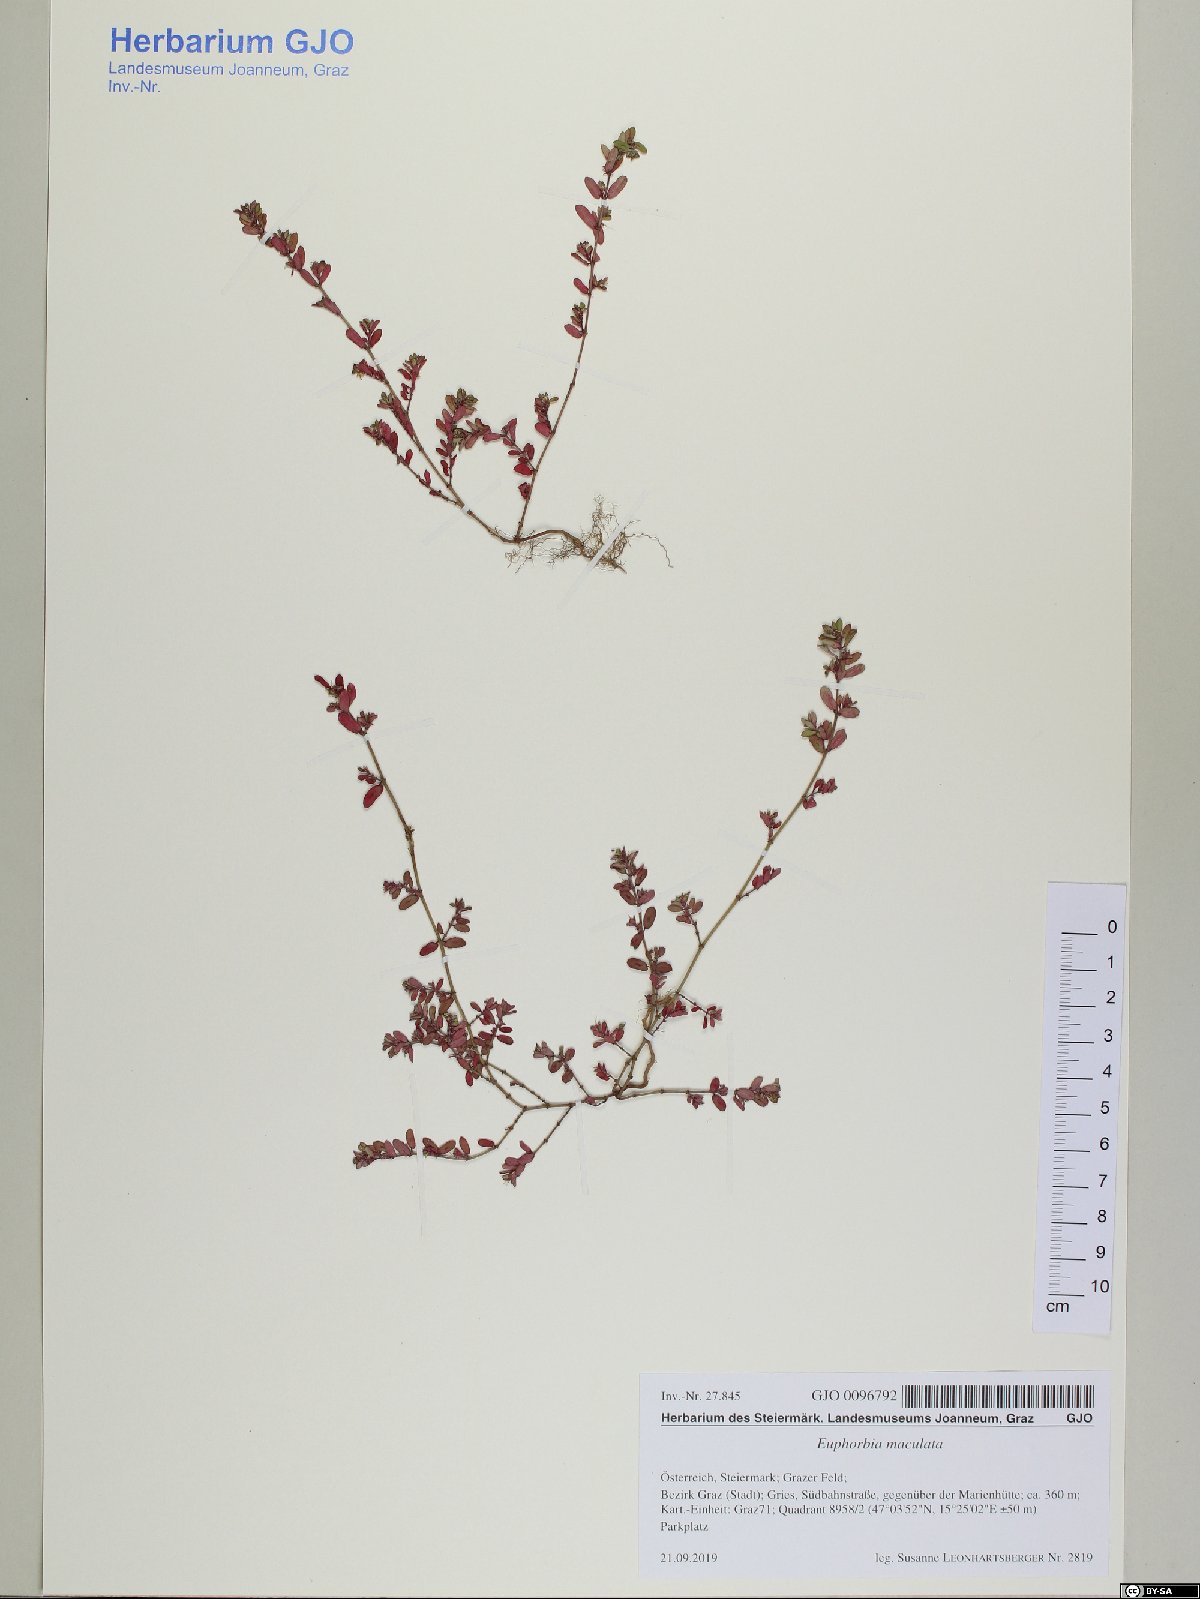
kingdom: Plantae
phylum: Tracheophyta
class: Magnoliopsida
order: Malpighiales
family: Euphorbiaceae
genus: Euphorbia
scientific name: Euphorbia maculata
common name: Spotted spurge
